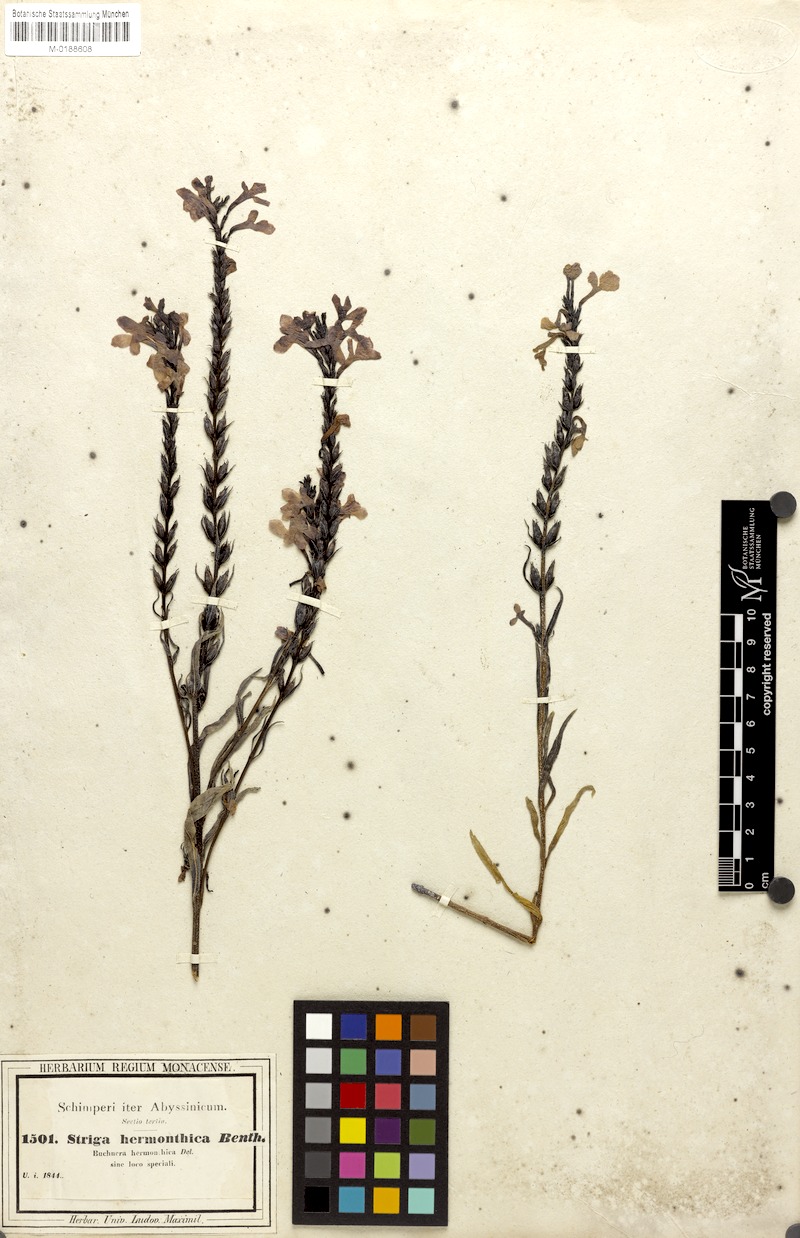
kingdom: Plantae
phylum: Tracheophyta
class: Magnoliopsida
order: Lamiales
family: Orobanchaceae
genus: Striga
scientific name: Striga hermonthica
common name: Purple witchweed
